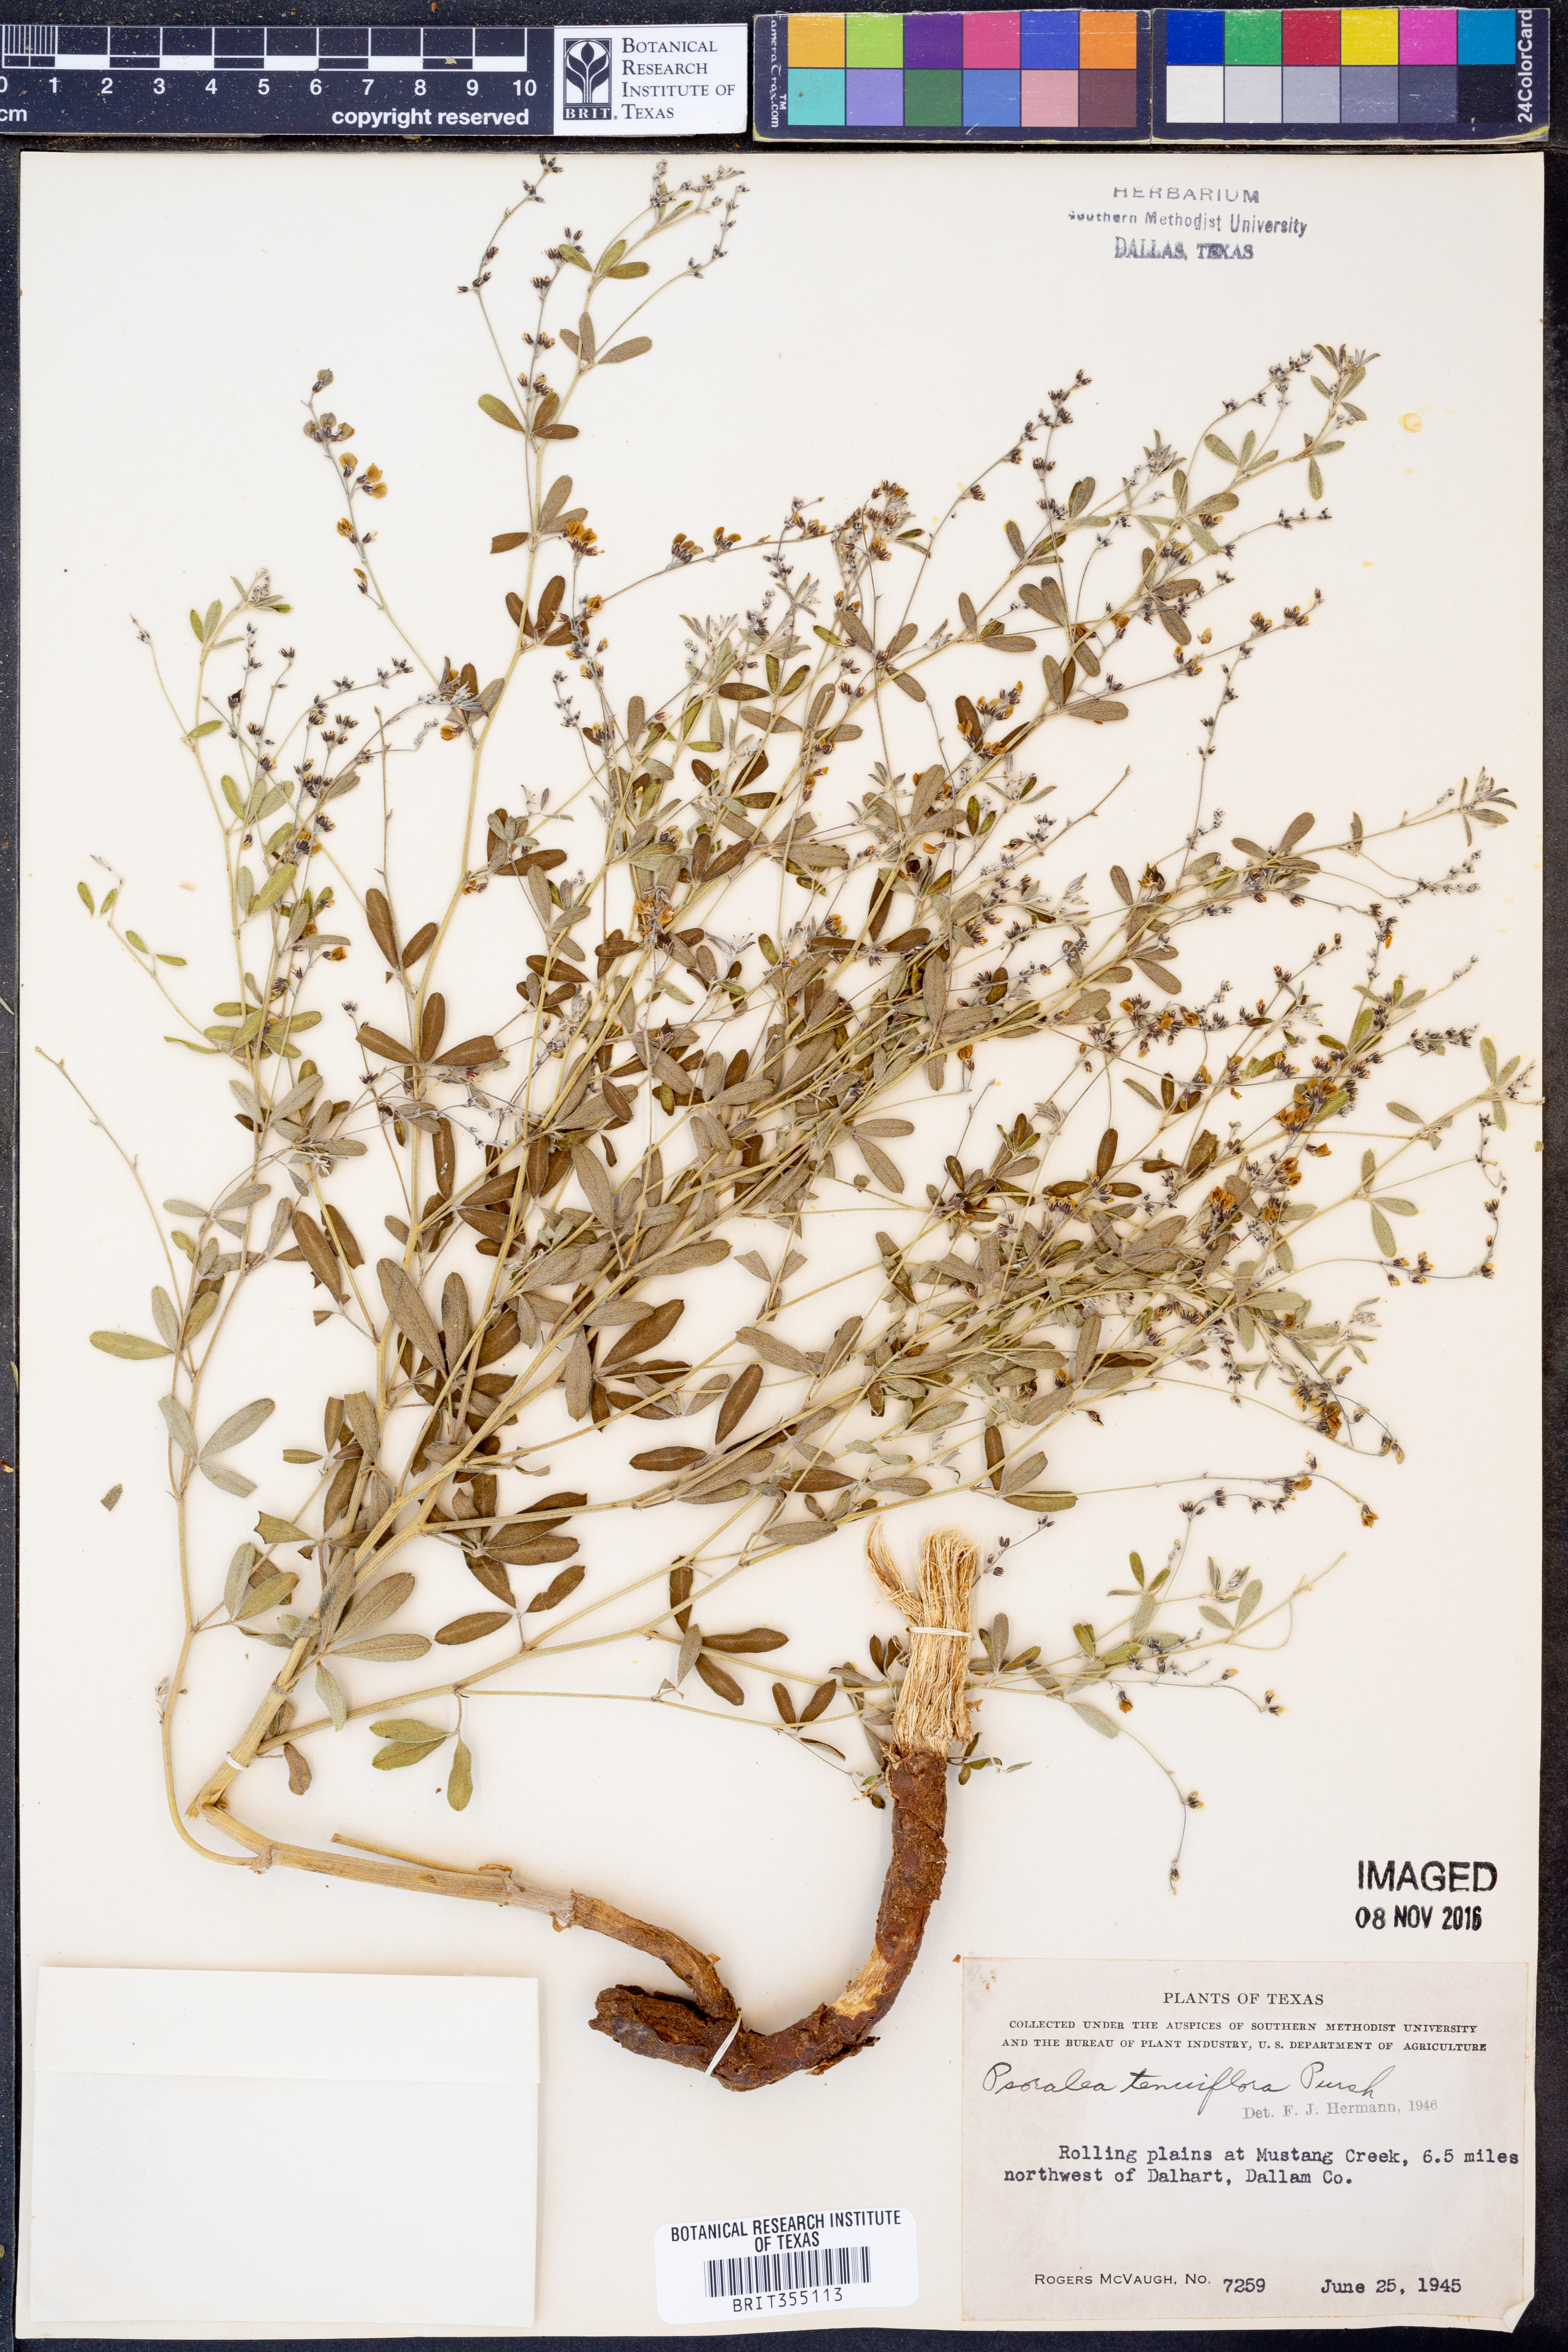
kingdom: Plantae
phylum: Tracheophyta
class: Magnoliopsida
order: Fabales
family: Fabaceae
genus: Pediomelum
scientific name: Pediomelum tenuiflorum
